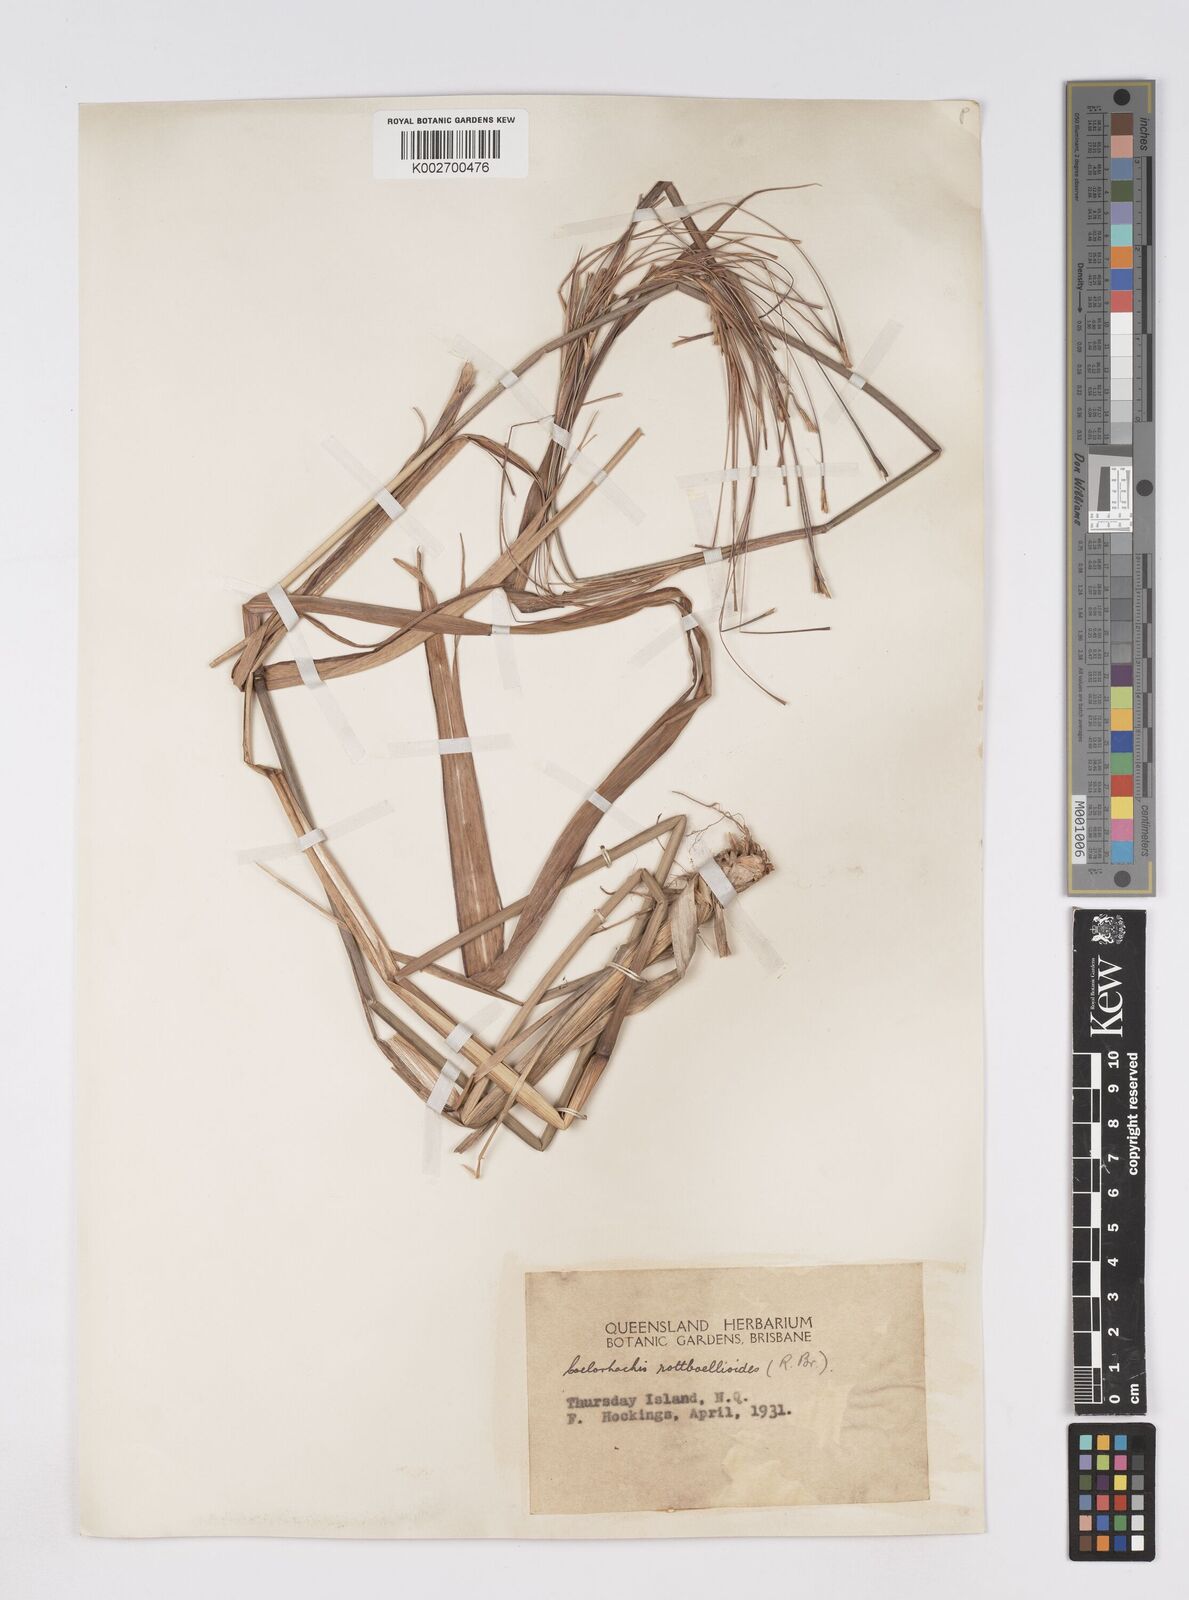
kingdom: Plantae
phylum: Tracheophyta
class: Liliopsida
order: Poales
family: Poaceae
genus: Rottboellia
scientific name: Rottboellia rottboellioides
